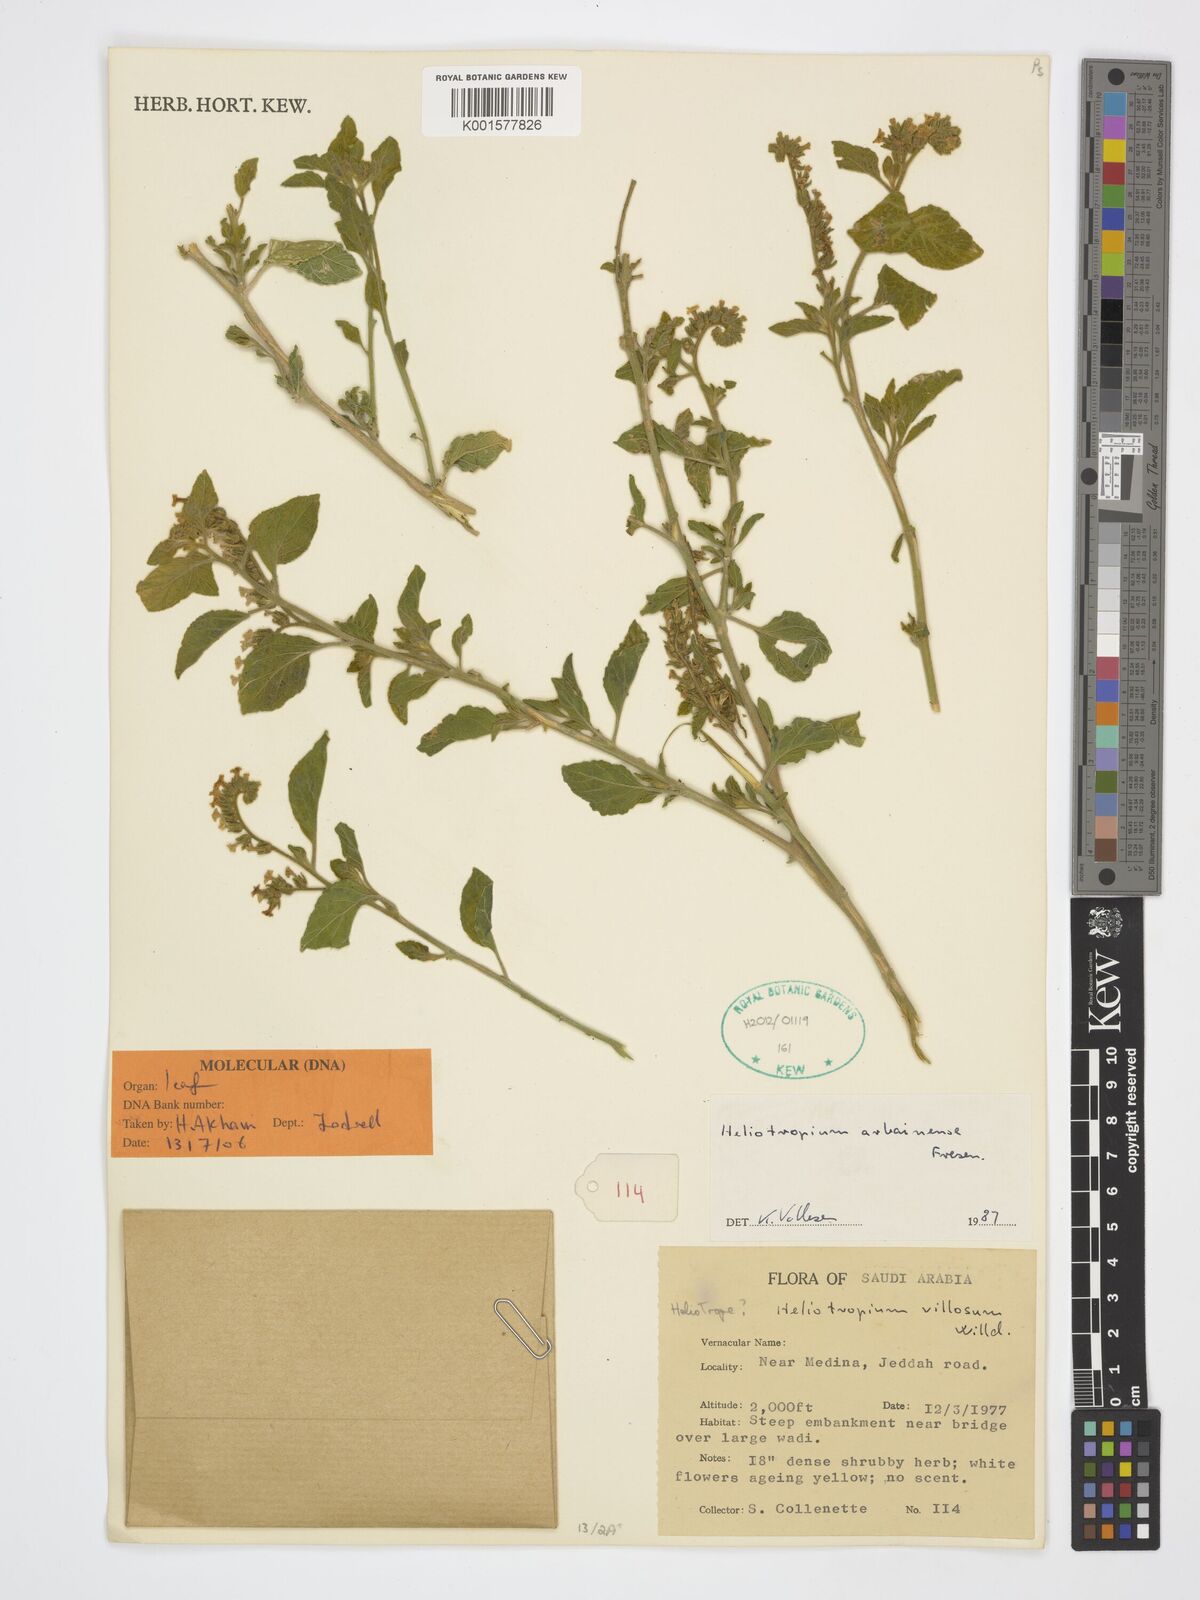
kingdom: Plantae
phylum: Tracheophyta
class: Magnoliopsida
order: Boraginales
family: Heliotropiaceae
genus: Heliotropium
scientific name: Heliotropium arbainense
